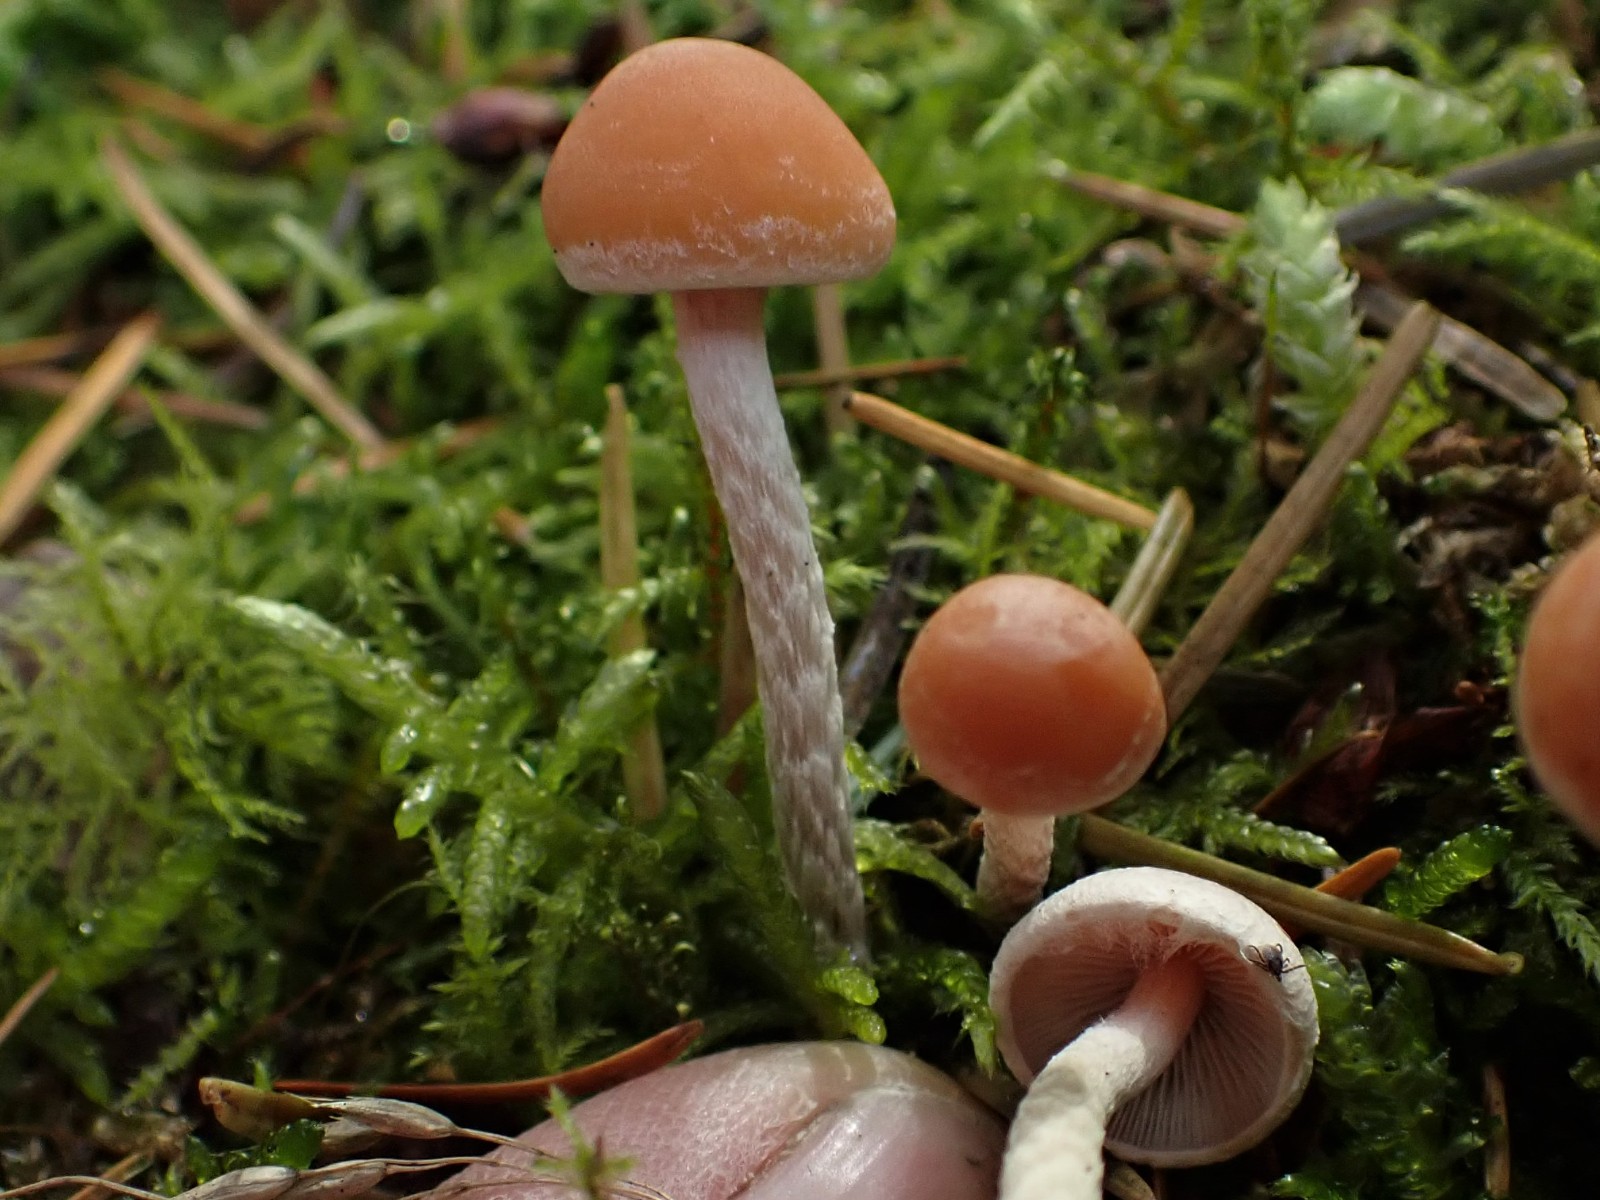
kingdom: Fungi
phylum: Basidiomycota
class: Agaricomycetes
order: Agaricales
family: Strophariaceae
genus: Hypholoma
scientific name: Hypholoma marginatum
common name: enlig svovlhat
